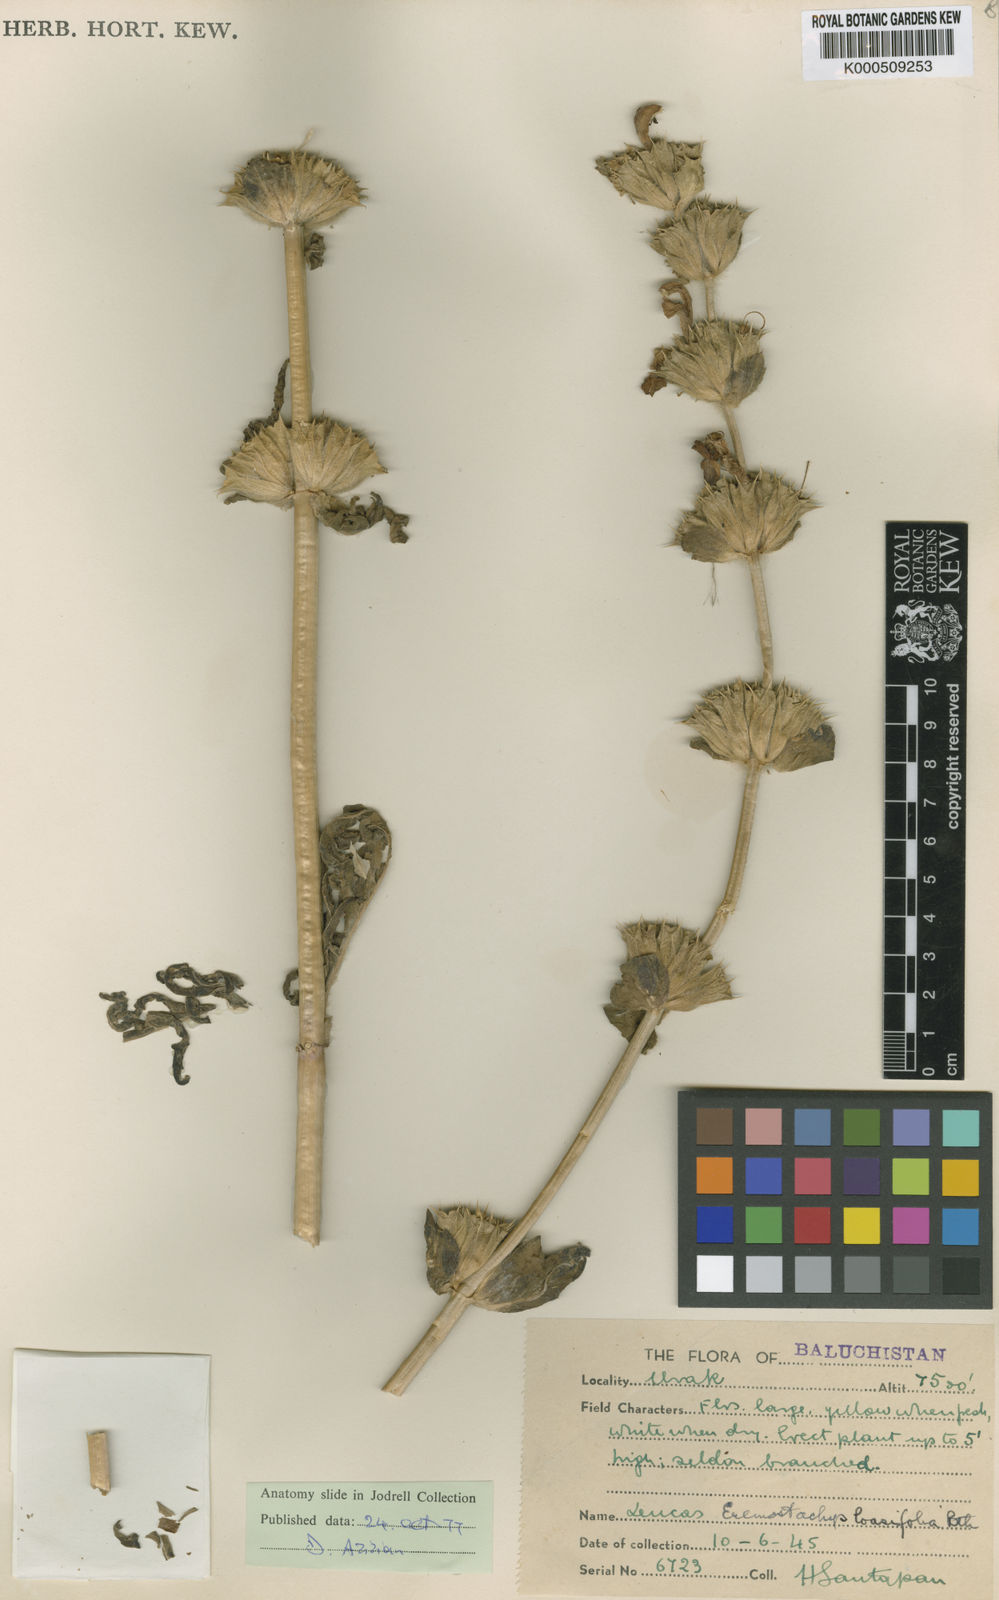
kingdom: Plantae
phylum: Tracheophyta
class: Magnoliopsida
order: Lamiales
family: Lamiaceae
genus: Phlomoides
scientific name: Phlomoides loasifolia
